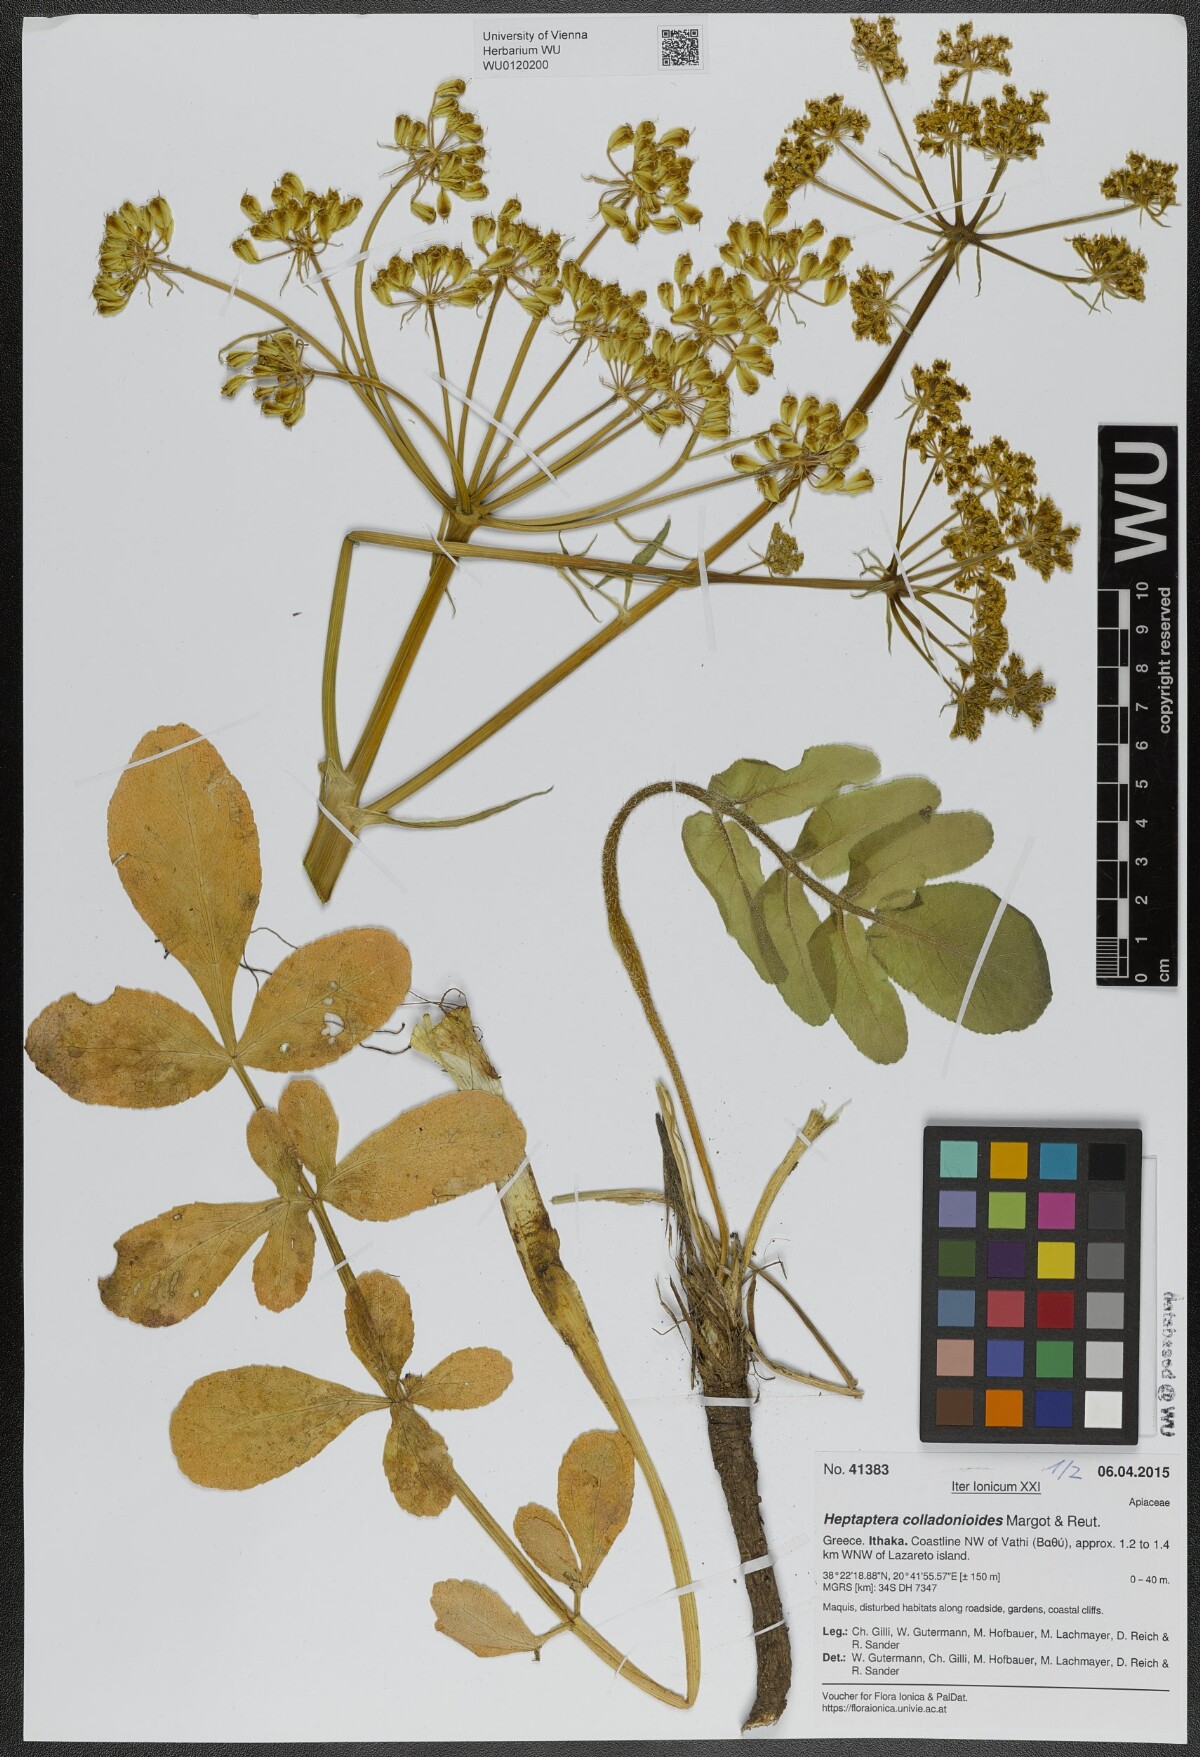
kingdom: Plantae
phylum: Tracheophyta
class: Magnoliopsida
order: Apiales
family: Apiaceae
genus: Heptaptera
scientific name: Heptaptera colladonioides
